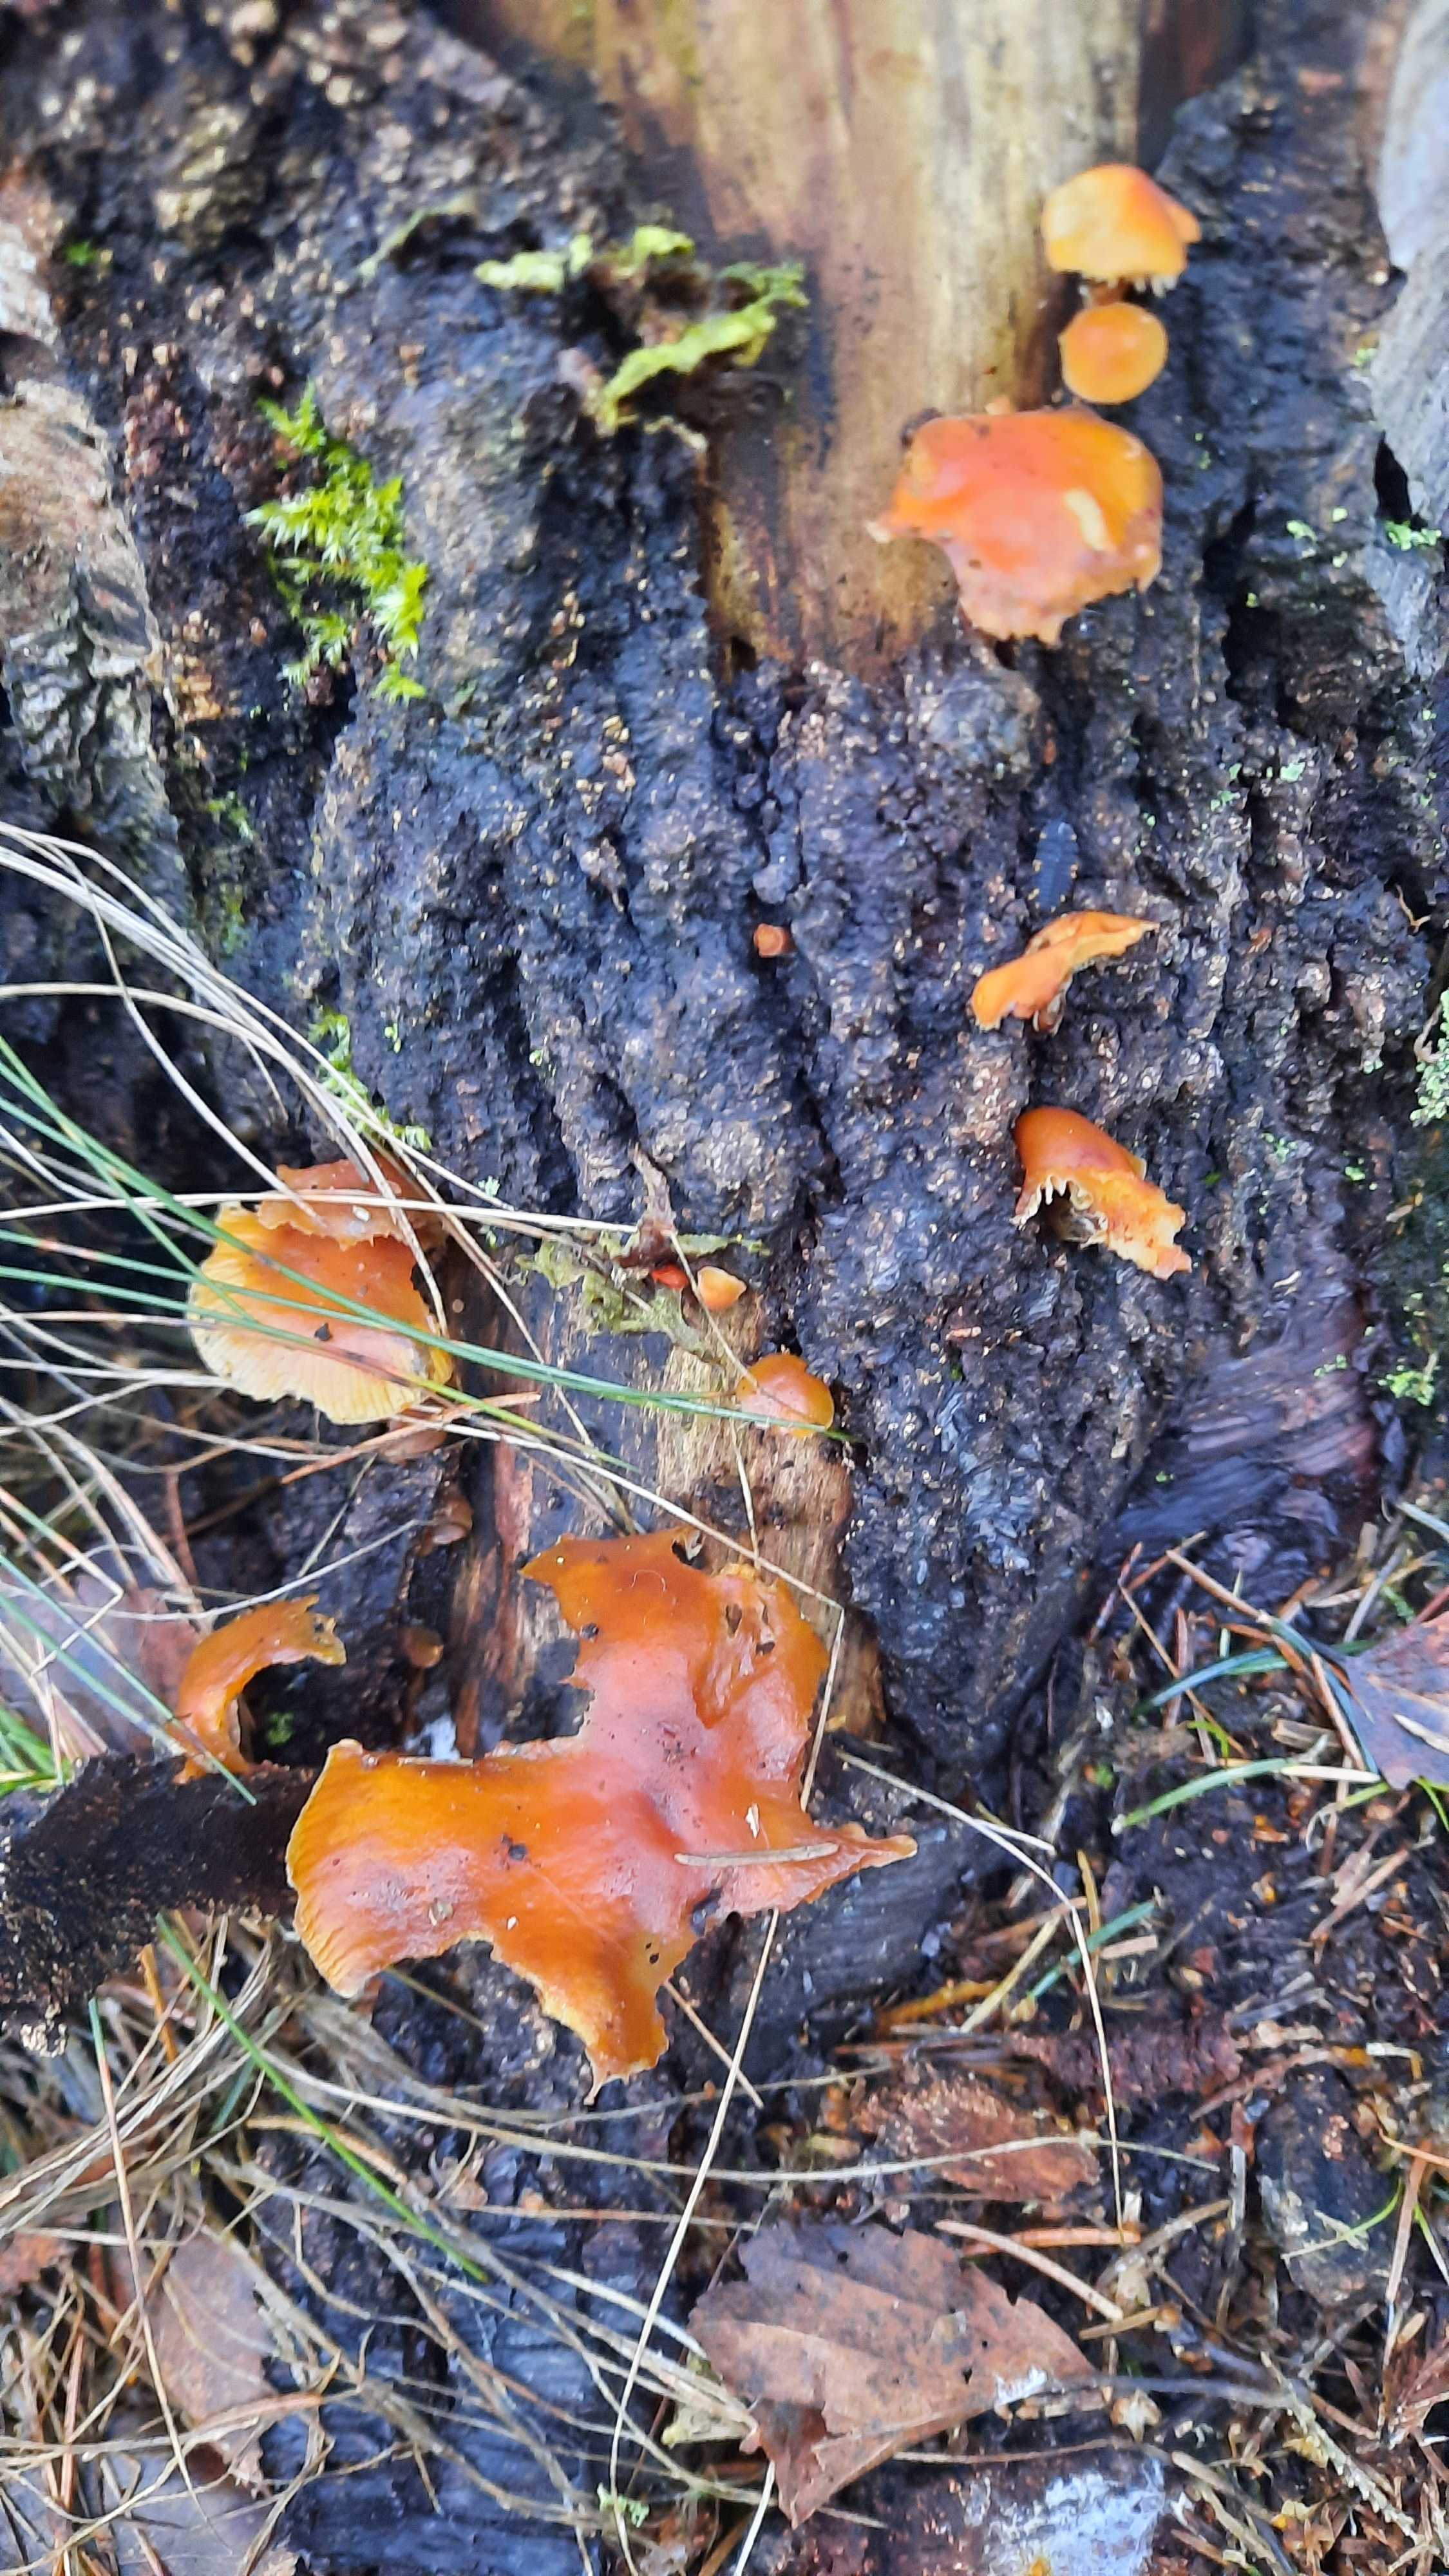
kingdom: Fungi
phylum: Basidiomycota
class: Agaricomycetes
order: Agaricales
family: Physalacriaceae
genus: Flammulina
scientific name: Flammulina velutipes
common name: gul fløjlsfod
